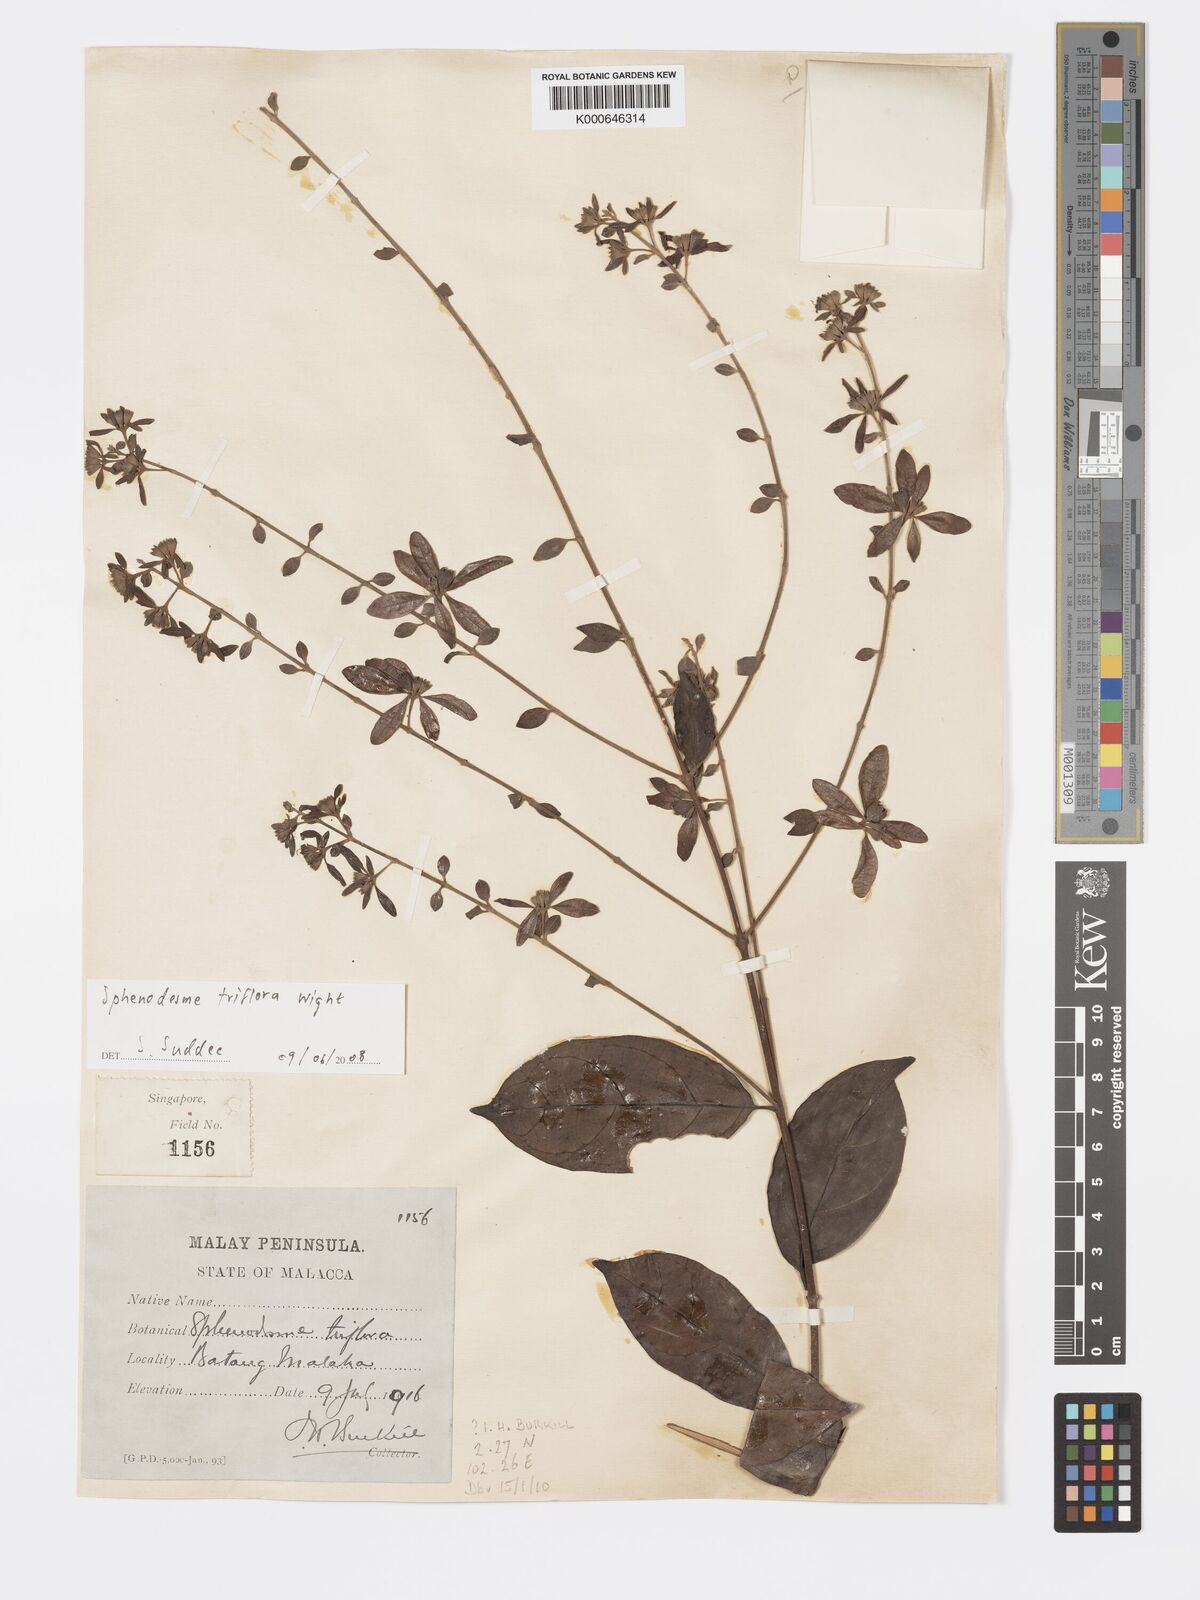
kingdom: Plantae
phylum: Tracheophyta
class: Magnoliopsida
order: Lamiales
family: Lamiaceae
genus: Sphenodesme
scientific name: Sphenodesme
